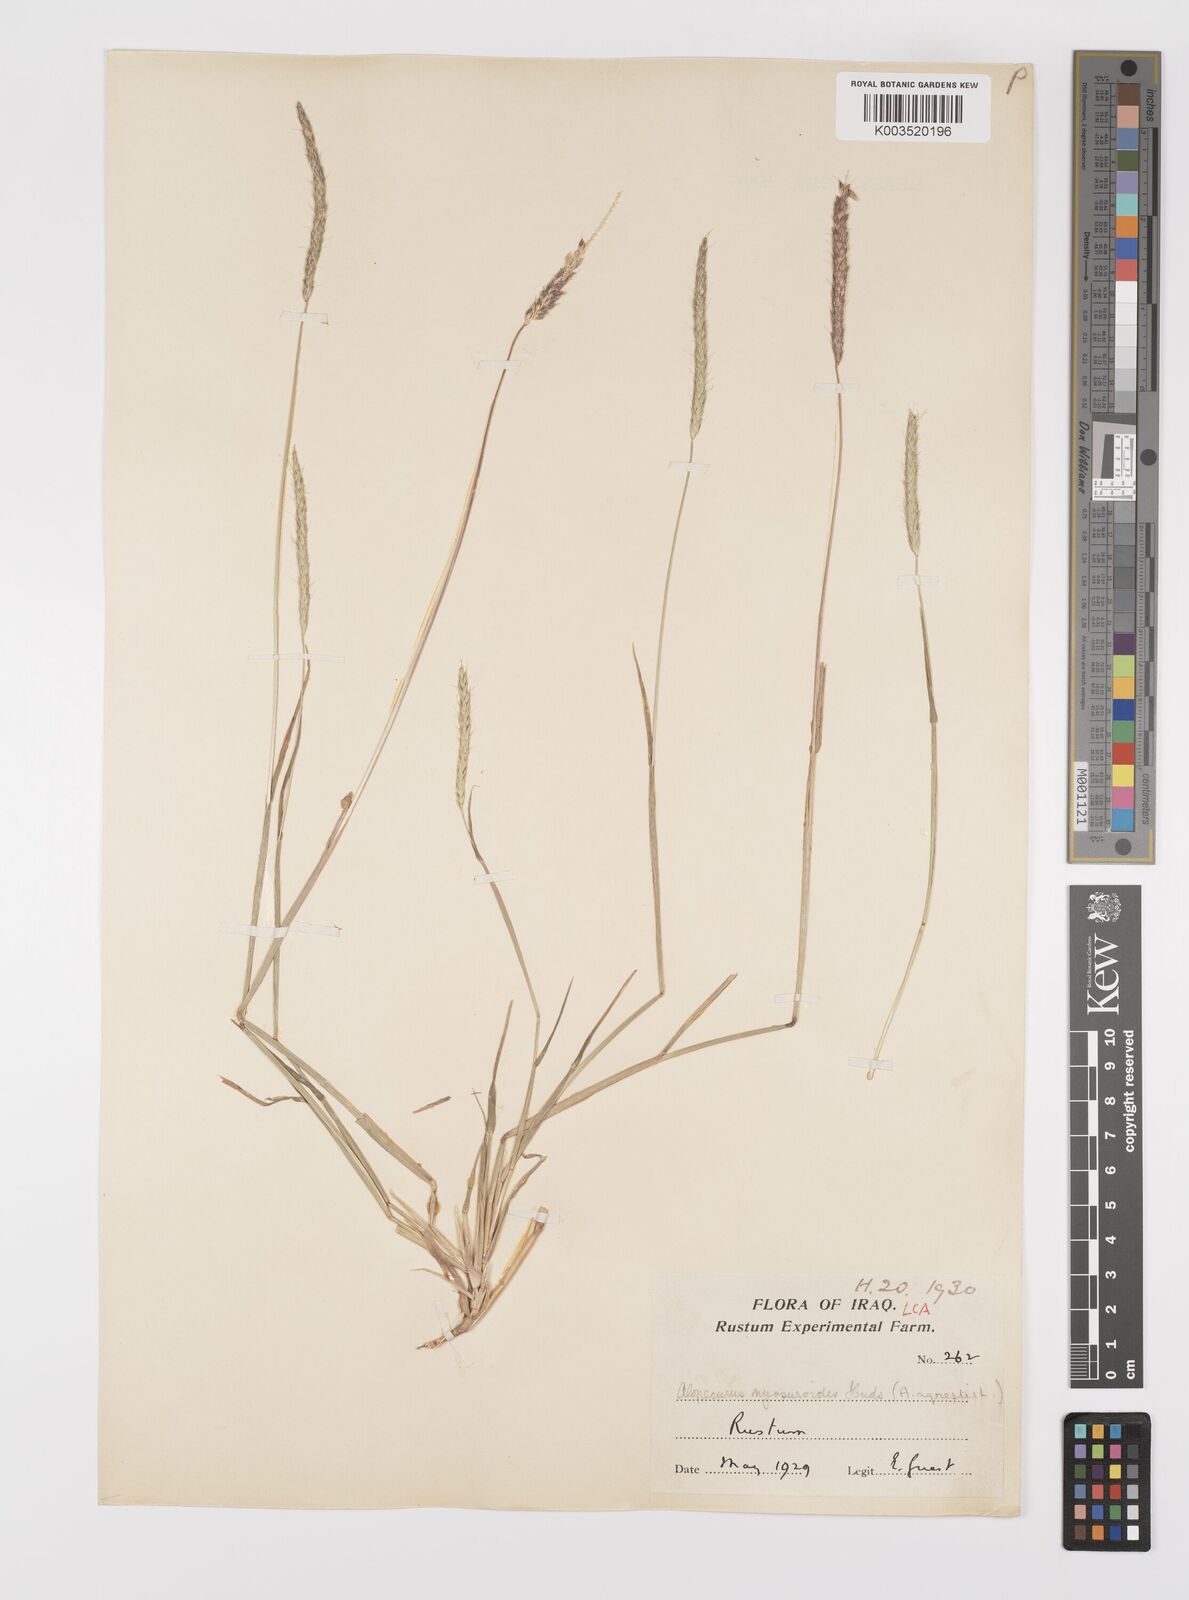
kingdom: Plantae
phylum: Tracheophyta
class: Liliopsida
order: Poales
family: Poaceae
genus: Alopecurus
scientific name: Alopecurus myosuroides
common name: Black-grass
